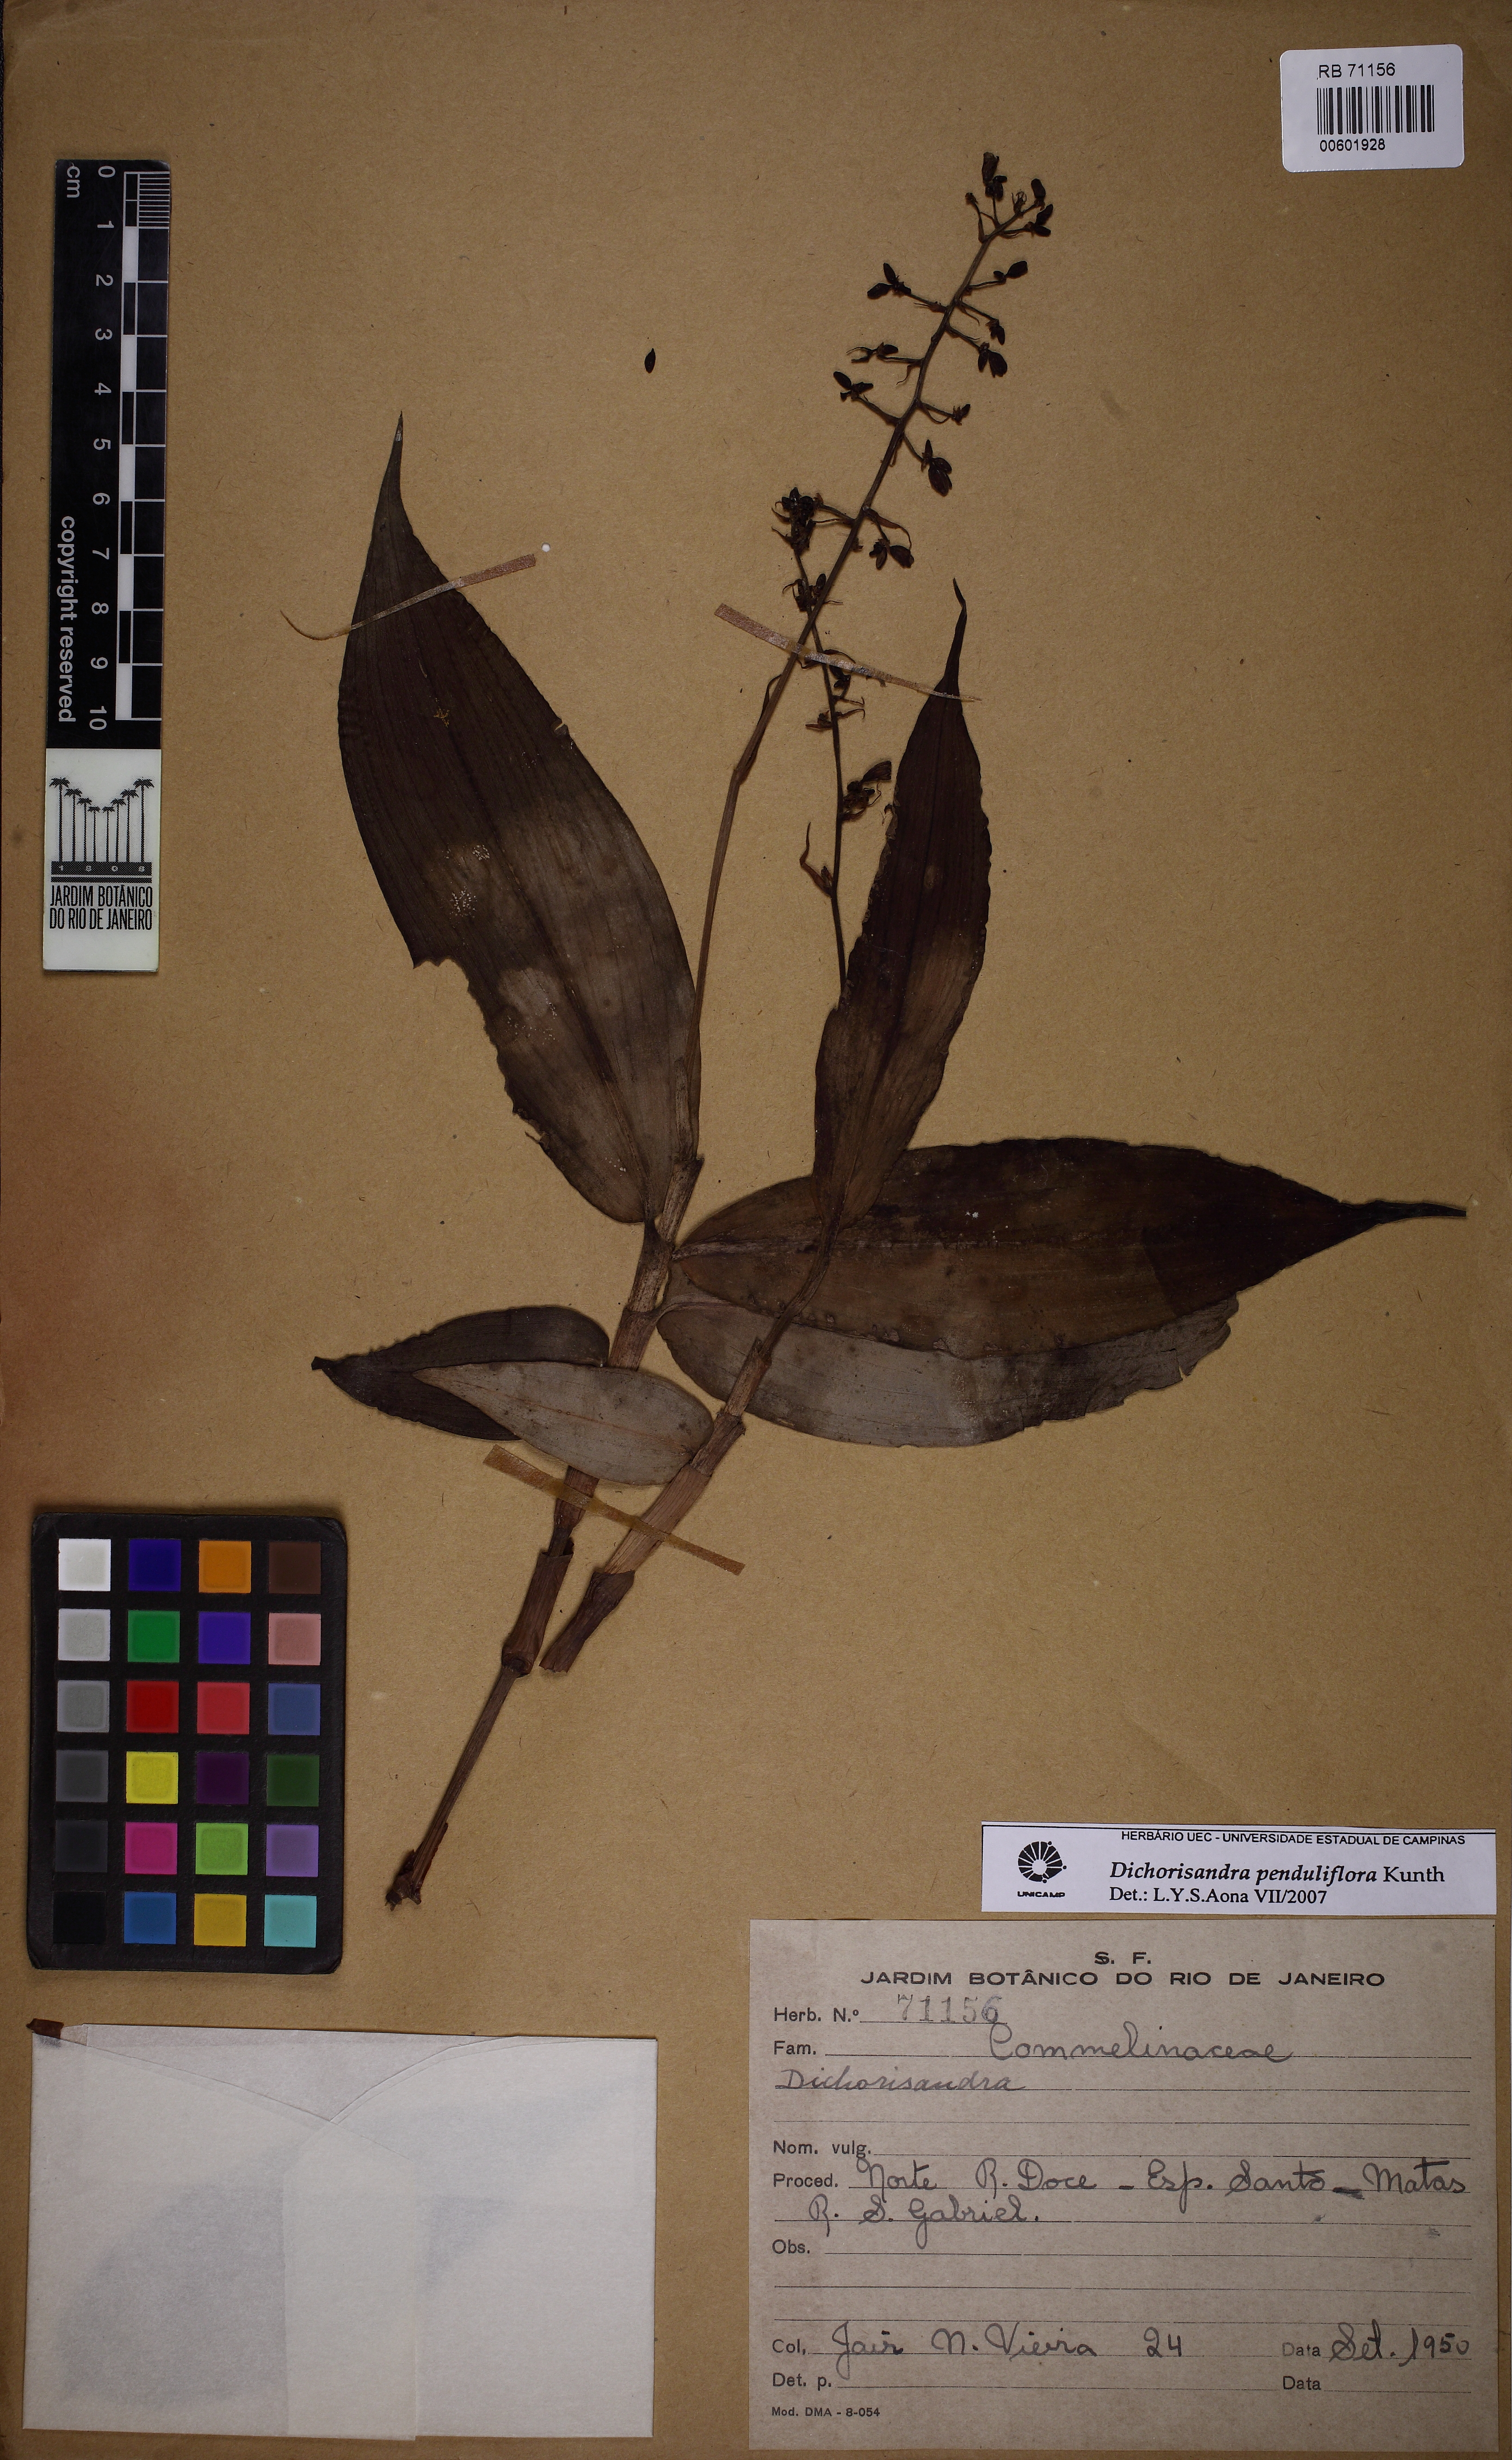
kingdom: Plantae
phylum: Tracheophyta
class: Liliopsida
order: Commelinales
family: Commelinaceae
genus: Dichorisandra
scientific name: Dichorisandra hexandra
